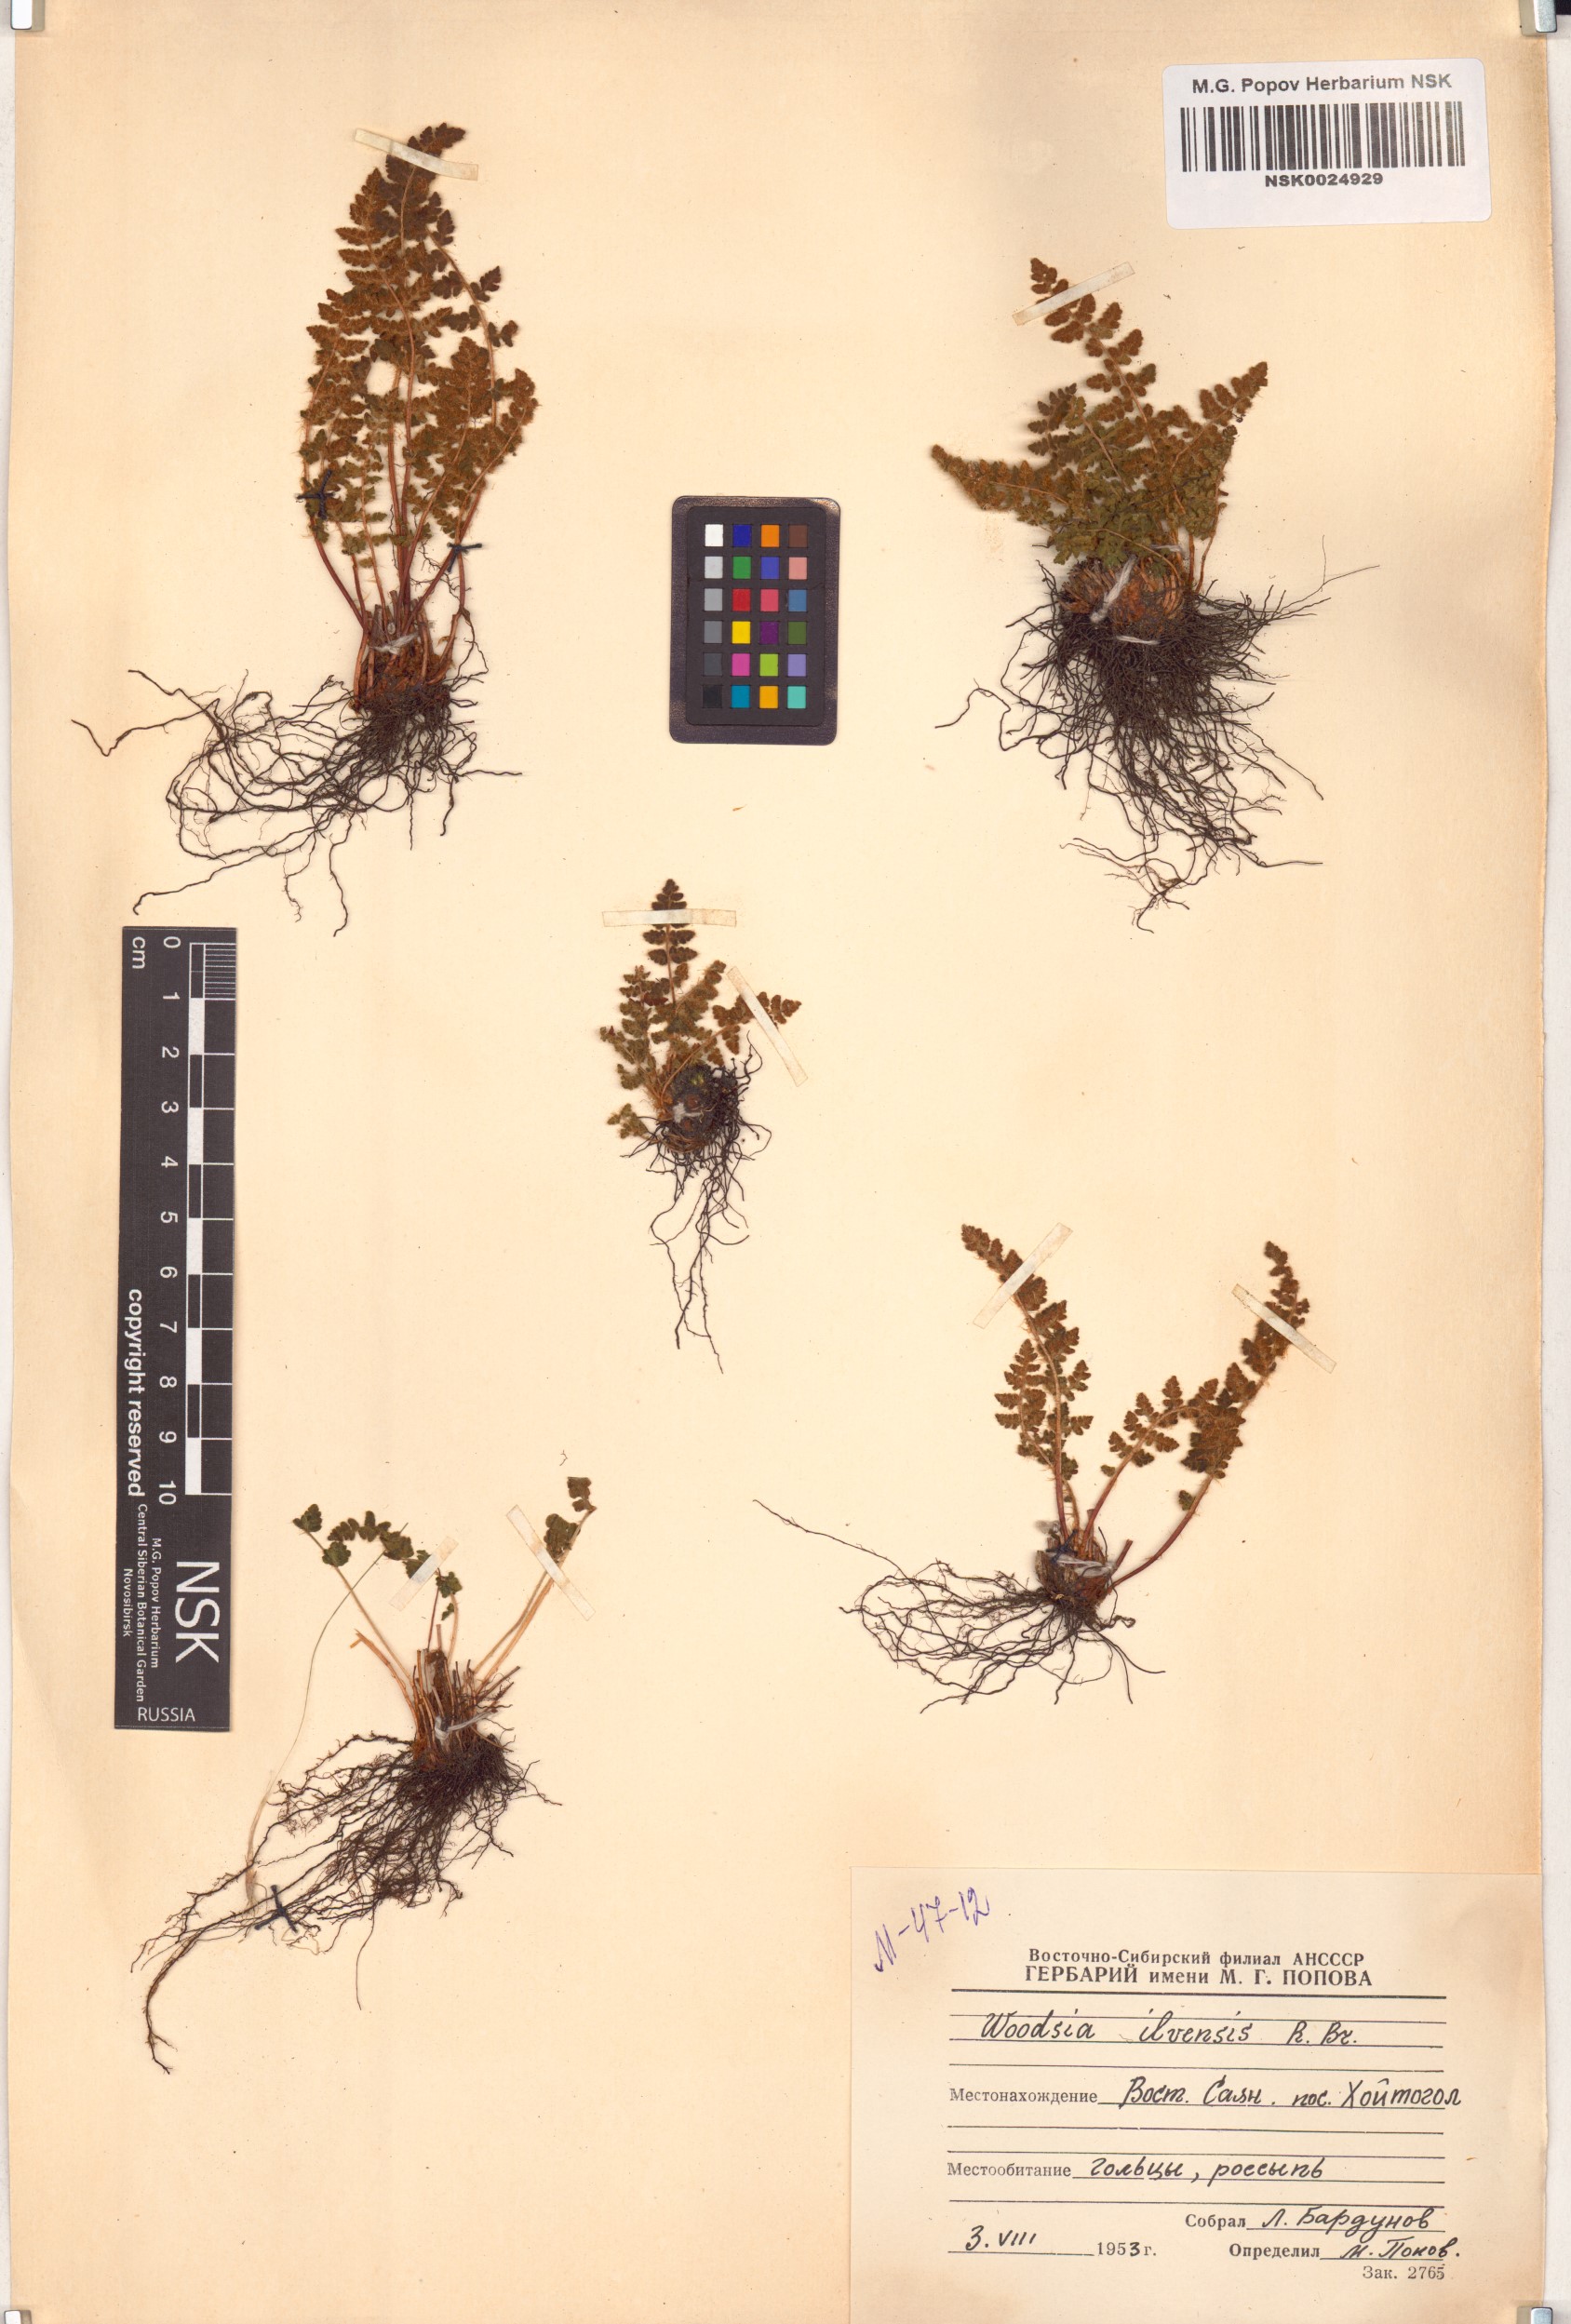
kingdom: Plantae
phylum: Tracheophyta
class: Polypodiopsida
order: Polypodiales
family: Woodsiaceae
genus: Woodsia
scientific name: Woodsia ilvensis
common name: Fragrant woodsia
